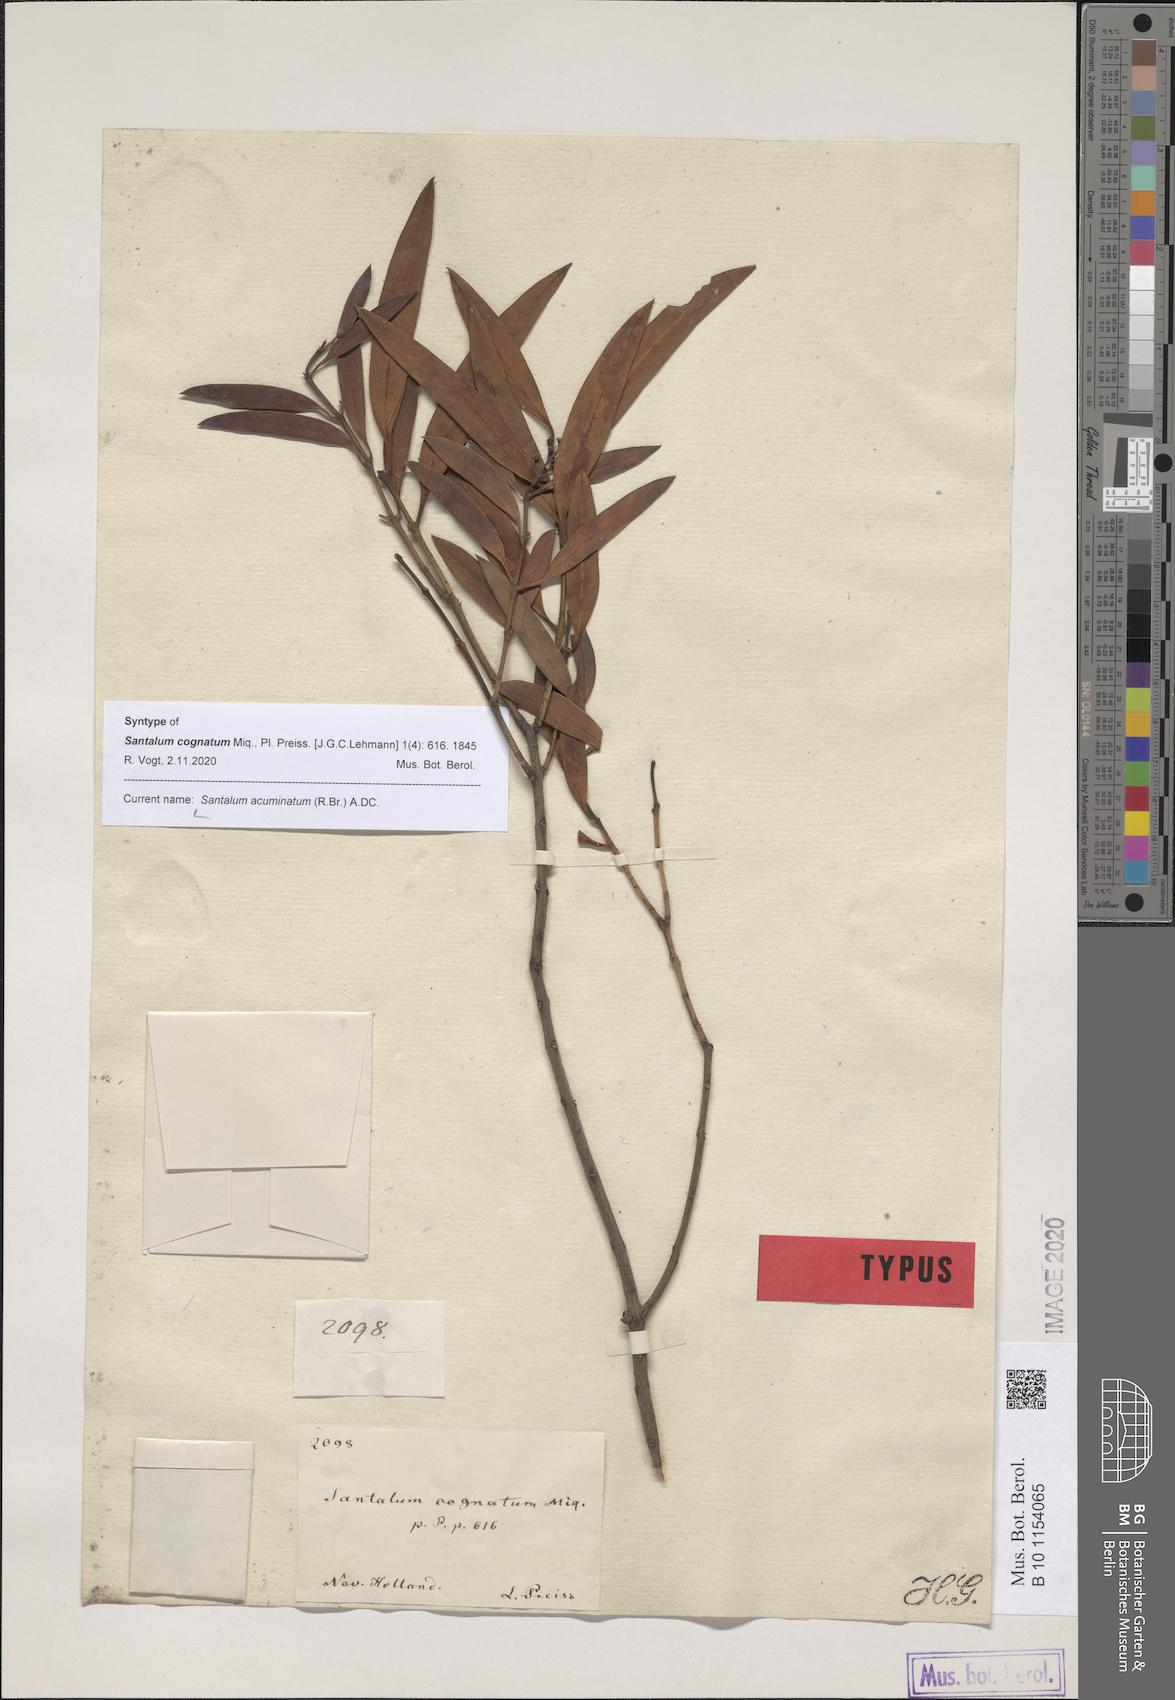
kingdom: Plantae
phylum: Tracheophyta
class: Magnoliopsida
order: Santalales
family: Santalaceae
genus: Santalum
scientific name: Santalum acuminatum
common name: Sweet quandong
